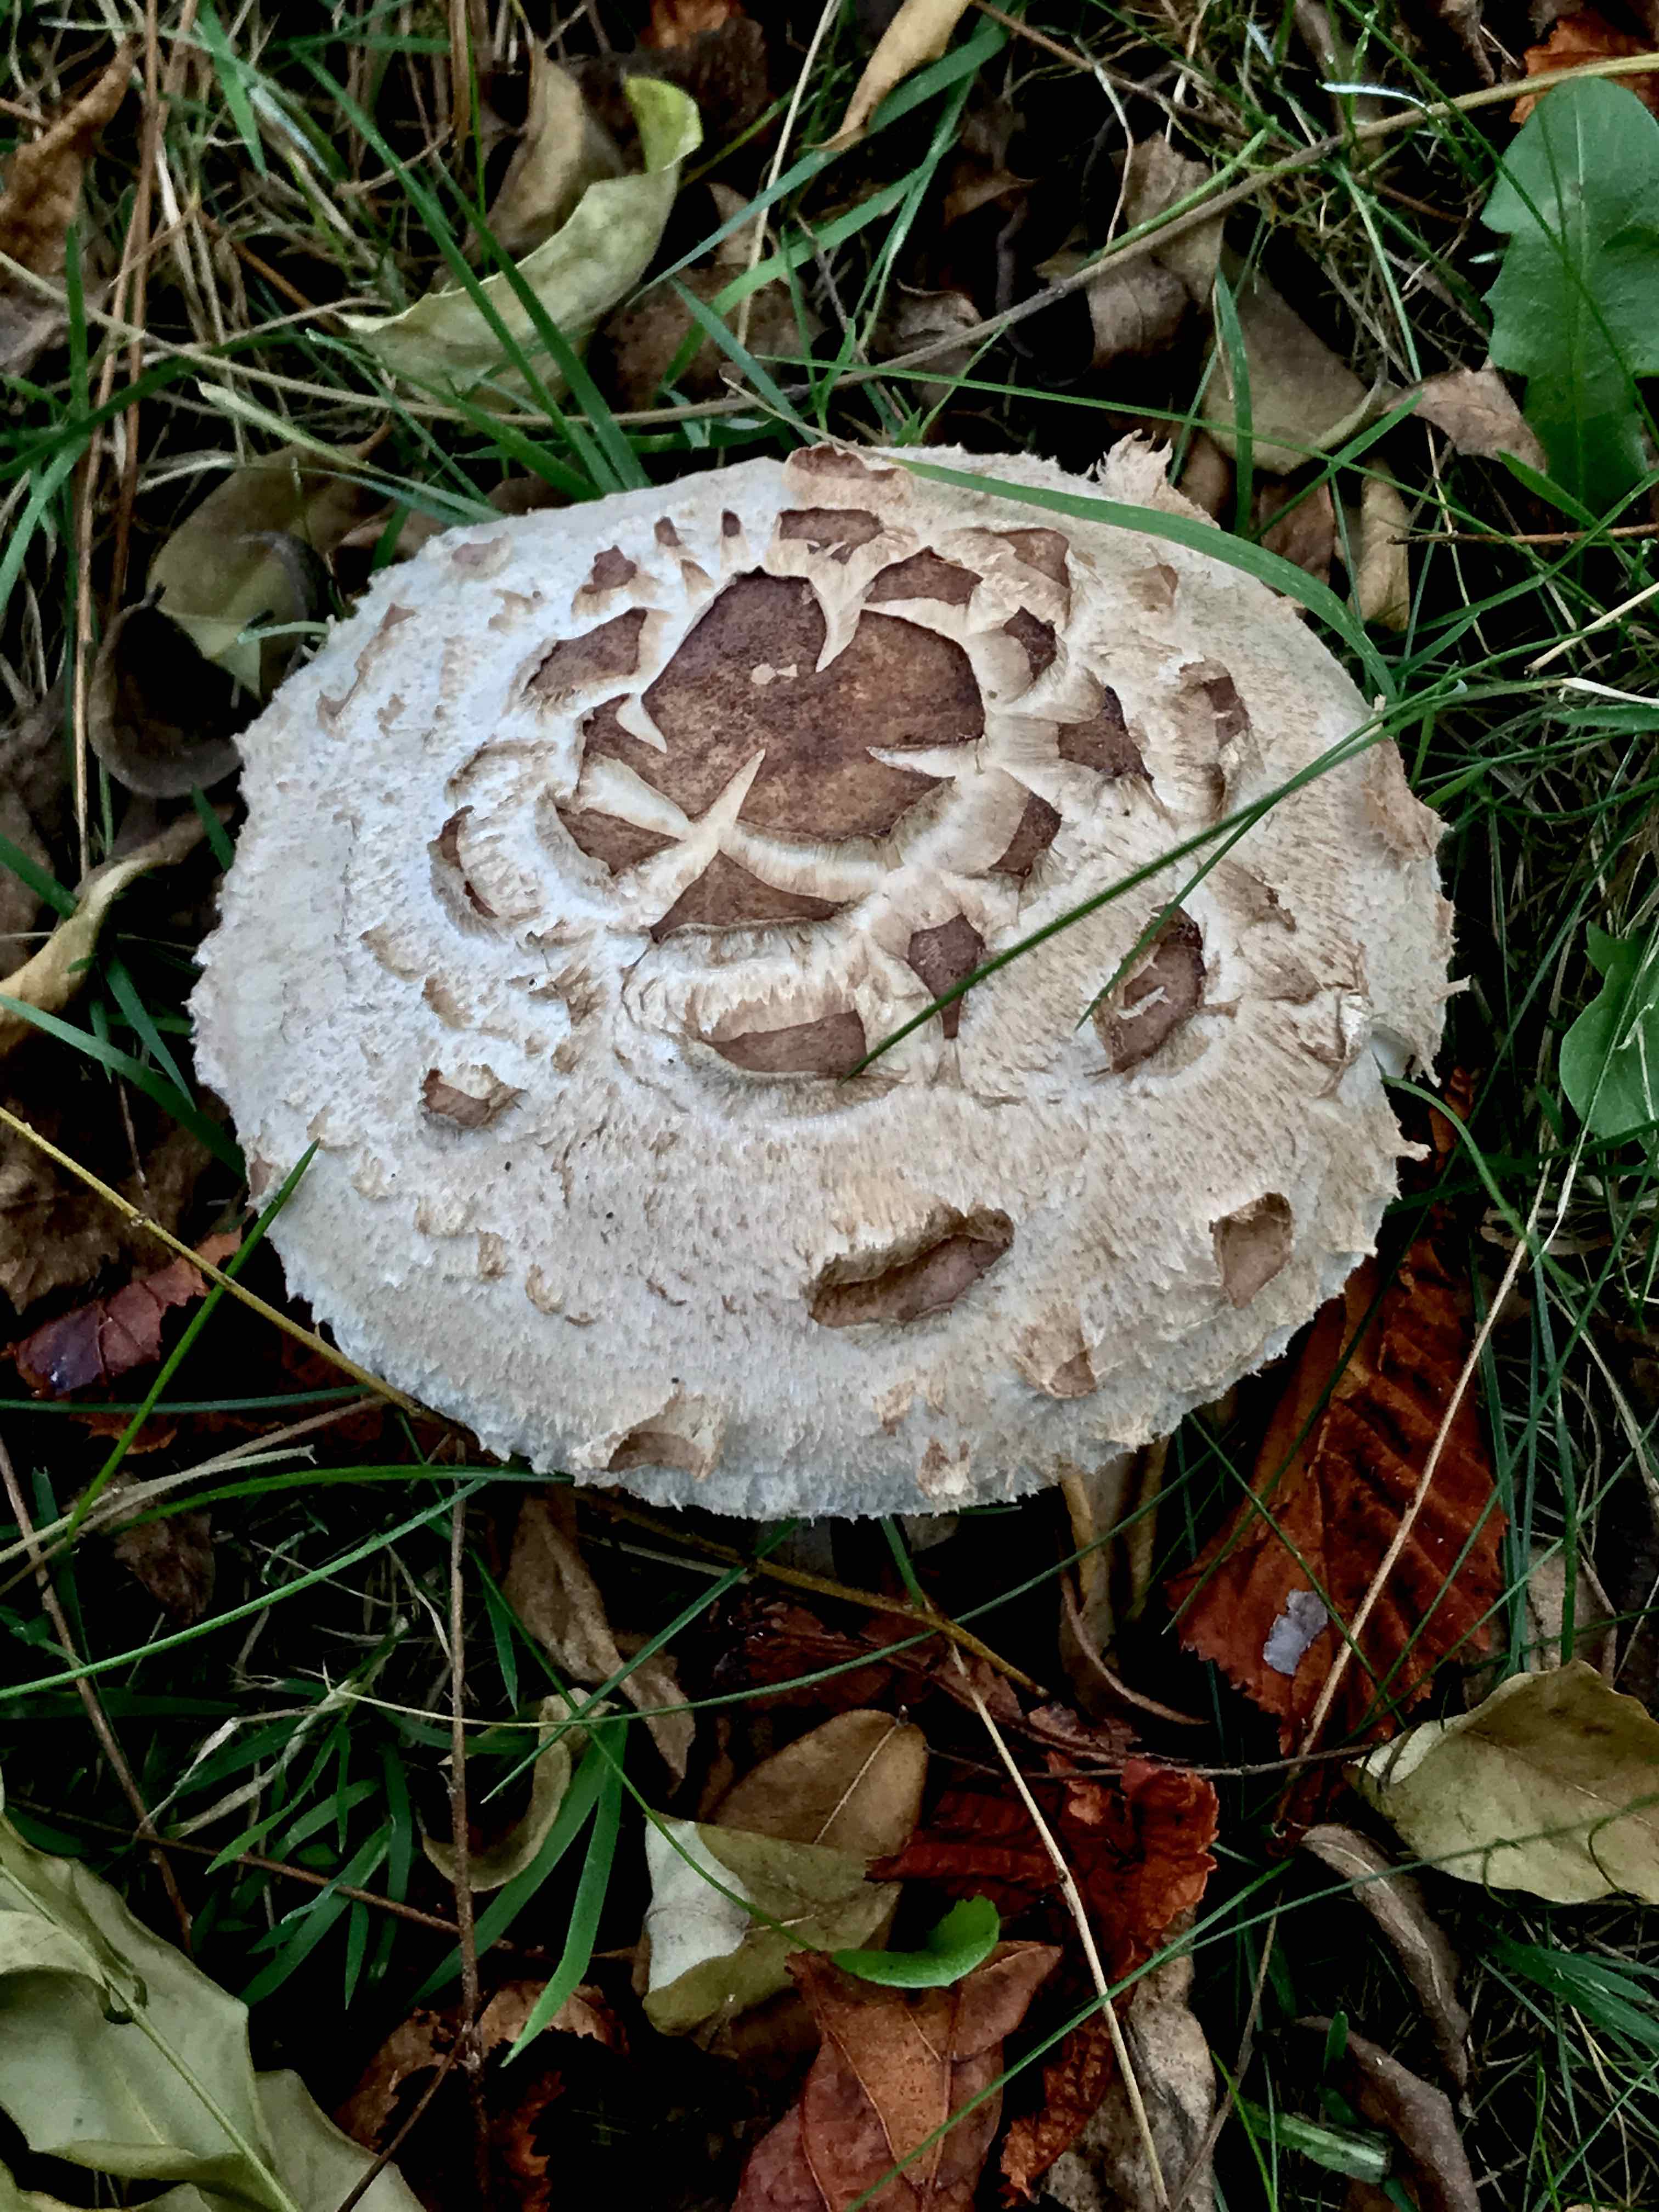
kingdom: Fungi
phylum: Basidiomycota
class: Agaricomycetes
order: Agaricales
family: Agaricaceae
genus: Chlorophyllum
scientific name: Chlorophyllum rhacodes
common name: ægte rabarberhat
